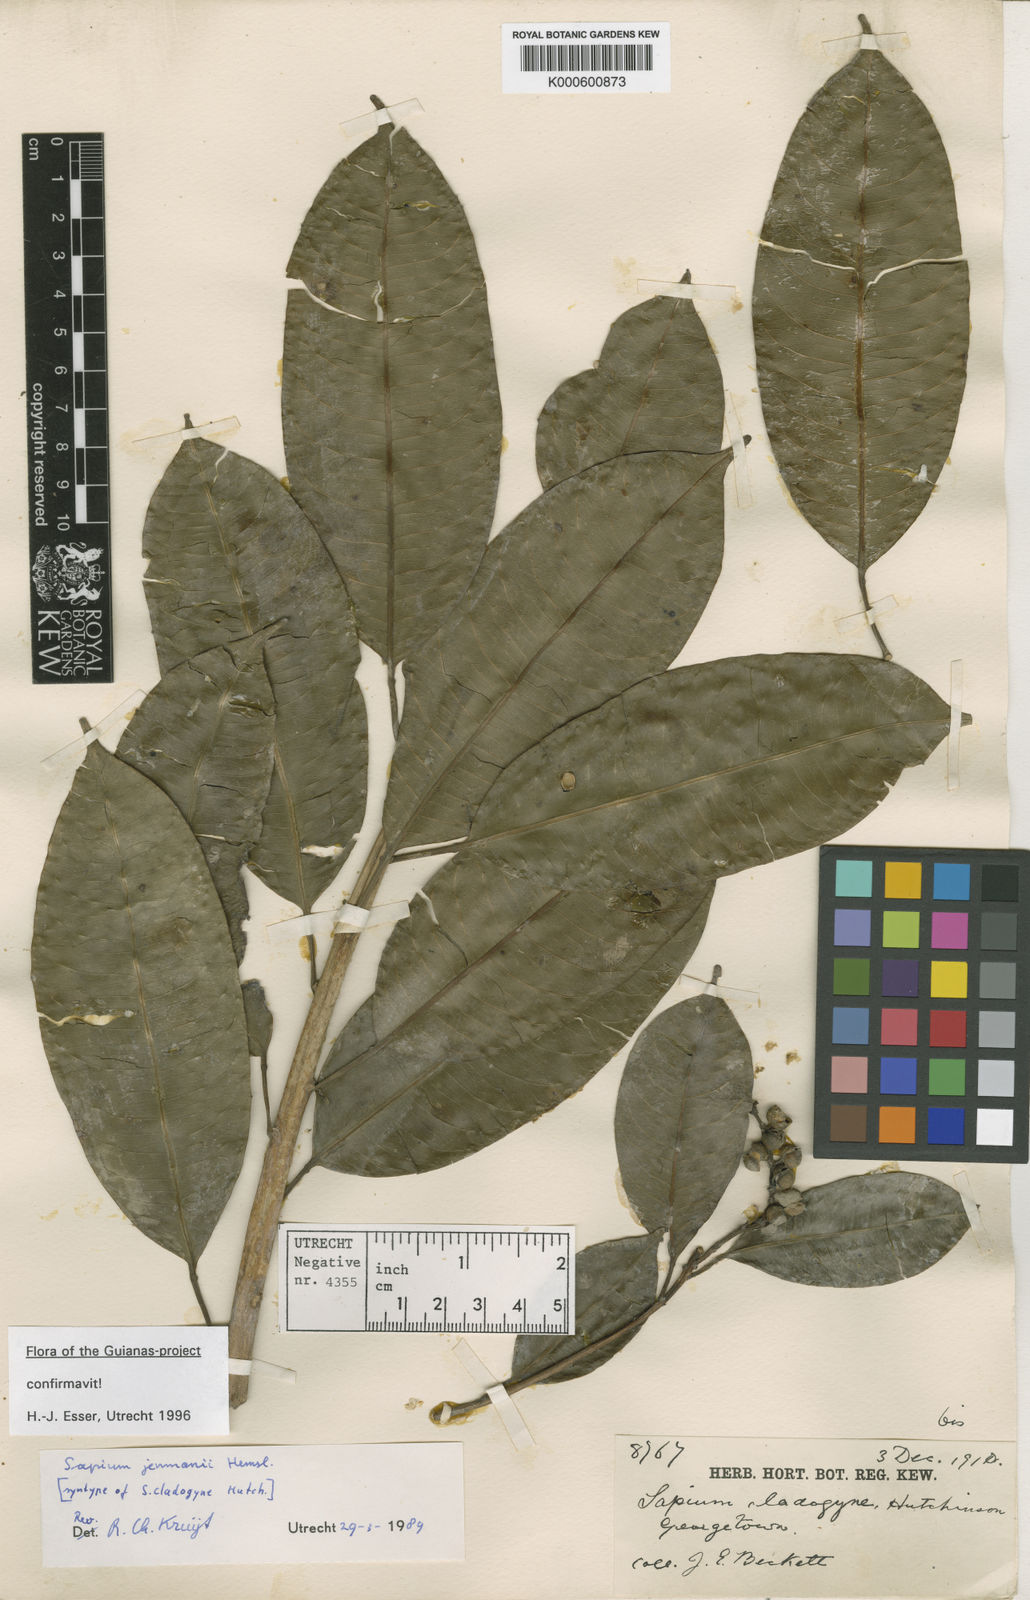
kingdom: Plantae
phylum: Tracheophyta
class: Magnoliopsida
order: Malpighiales
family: Euphorbiaceae
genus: Sapium
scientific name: Sapium jenmannii
